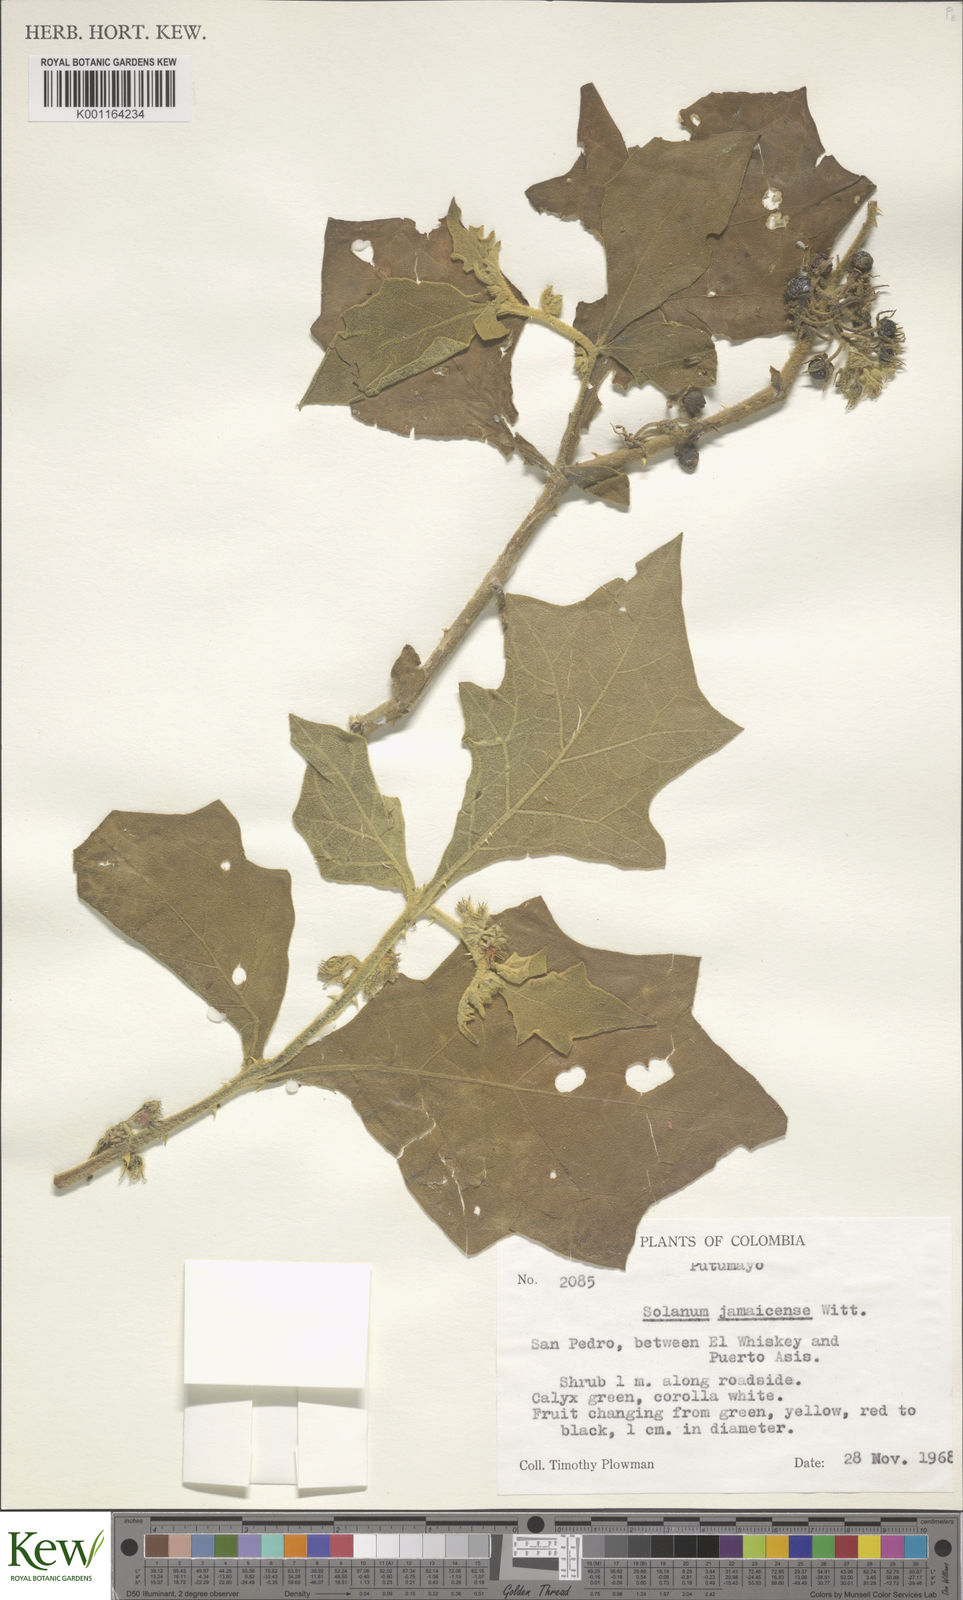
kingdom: Plantae
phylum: Tracheophyta
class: Magnoliopsida
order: Solanales
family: Solanaceae
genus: Solanum
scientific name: Solanum jamaicense
